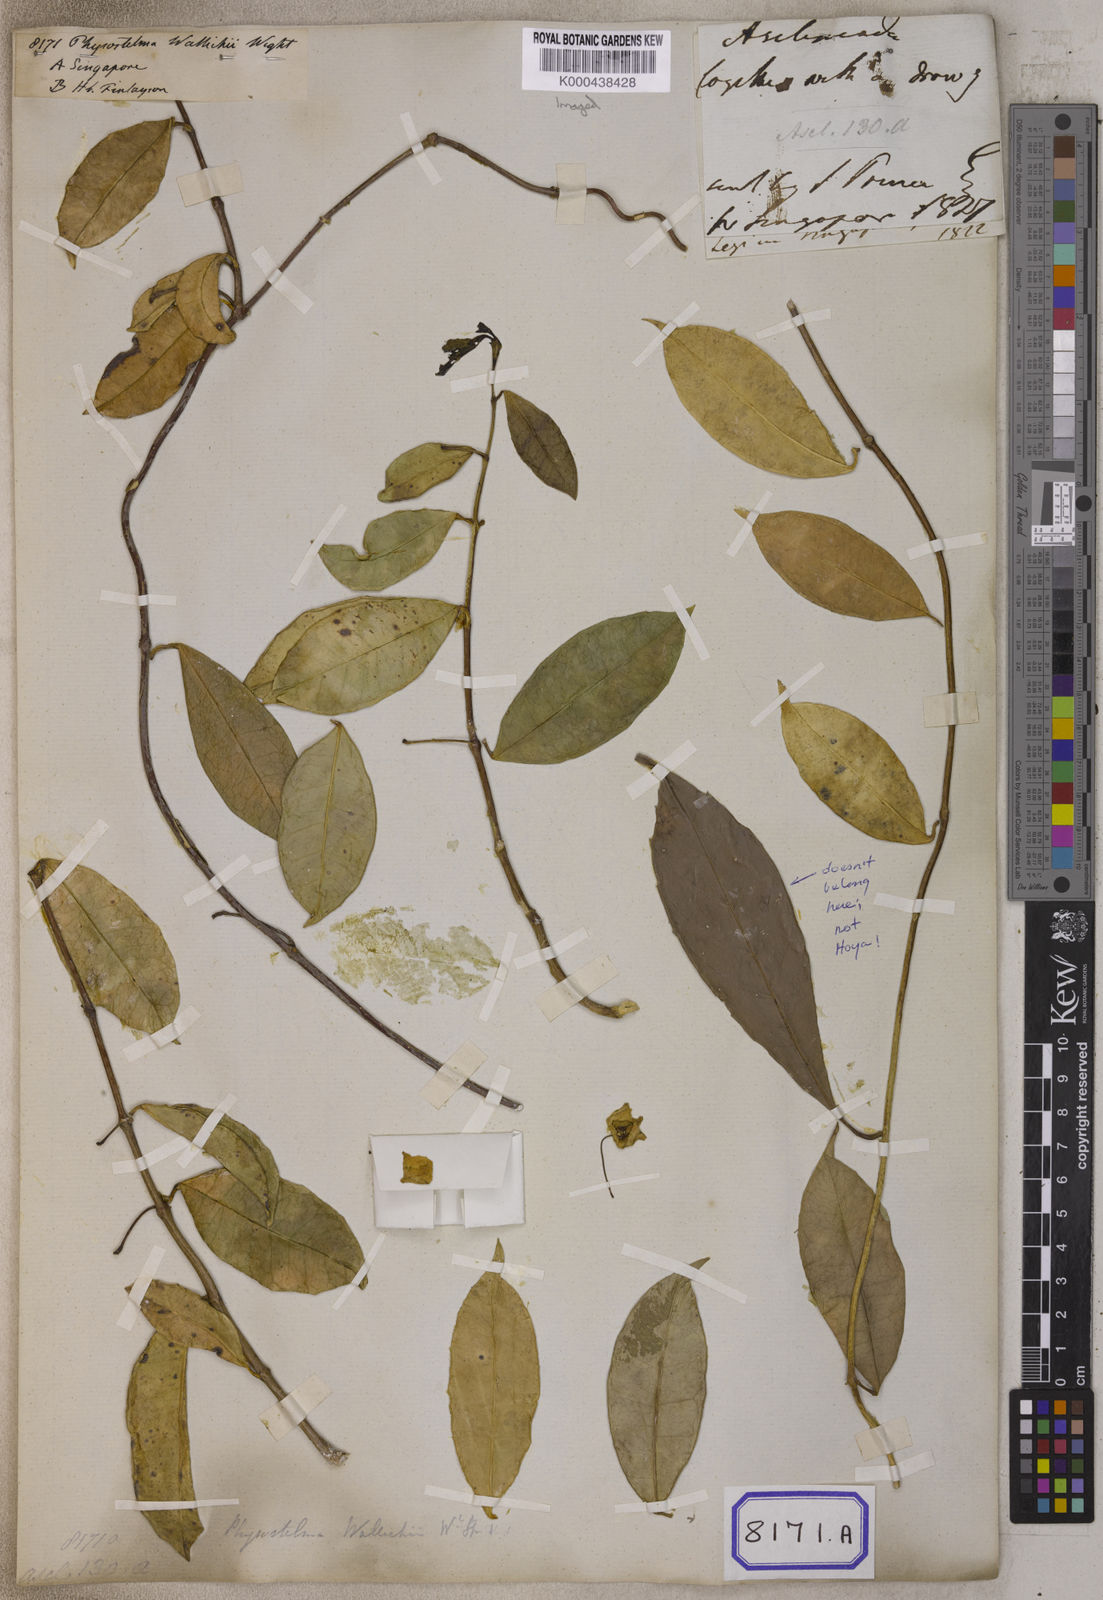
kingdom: Plantae
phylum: Tracheophyta
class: Magnoliopsida
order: Gentianales
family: Apocynaceae
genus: Hoya
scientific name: Hoya wallichii
